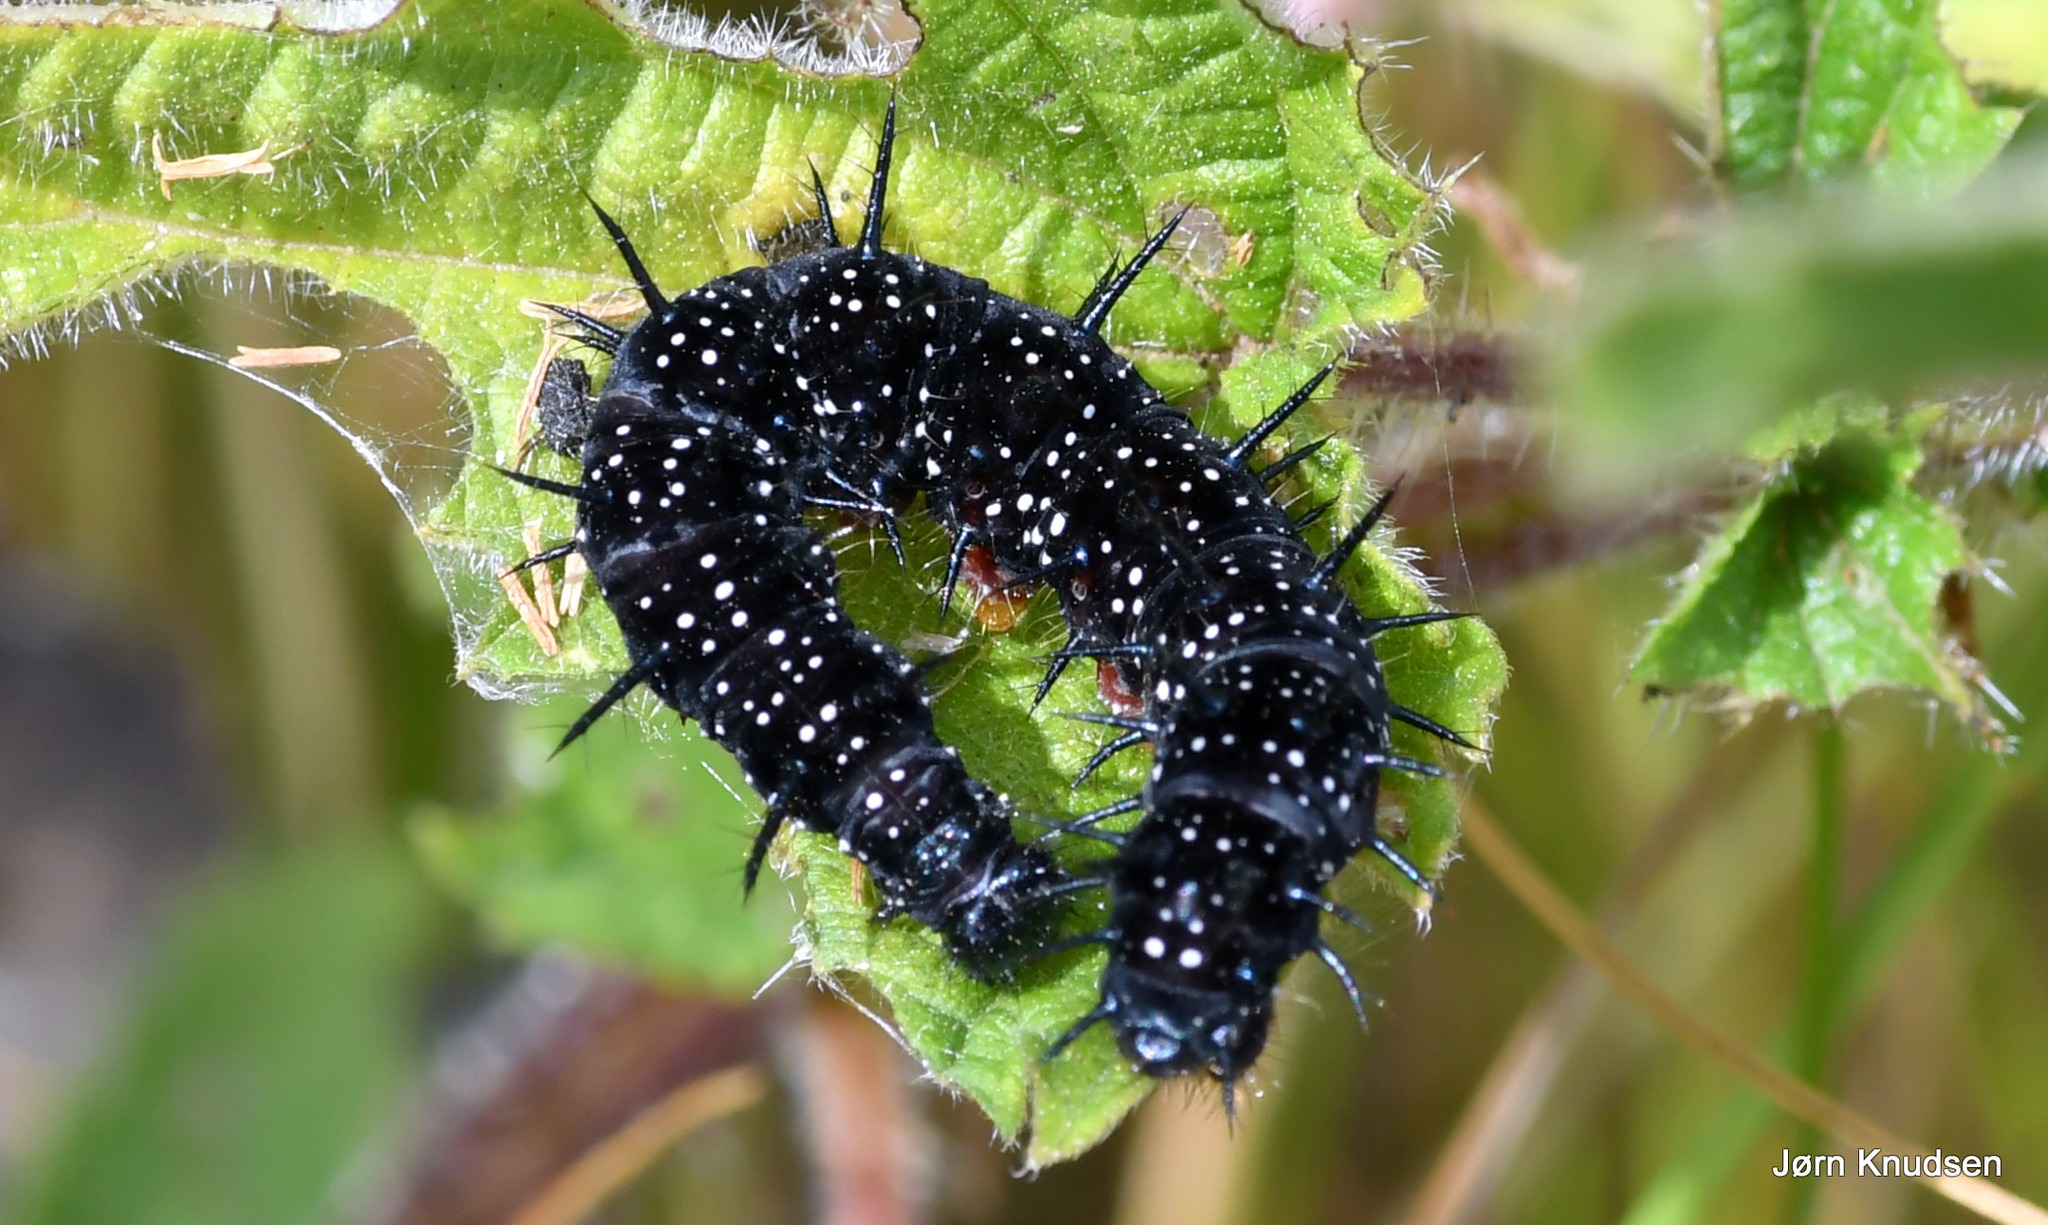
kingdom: Animalia
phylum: Arthropoda
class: Insecta
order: Lepidoptera
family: Nymphalidae
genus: Aglais
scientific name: Aglais io
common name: Dagpåfugleøje
